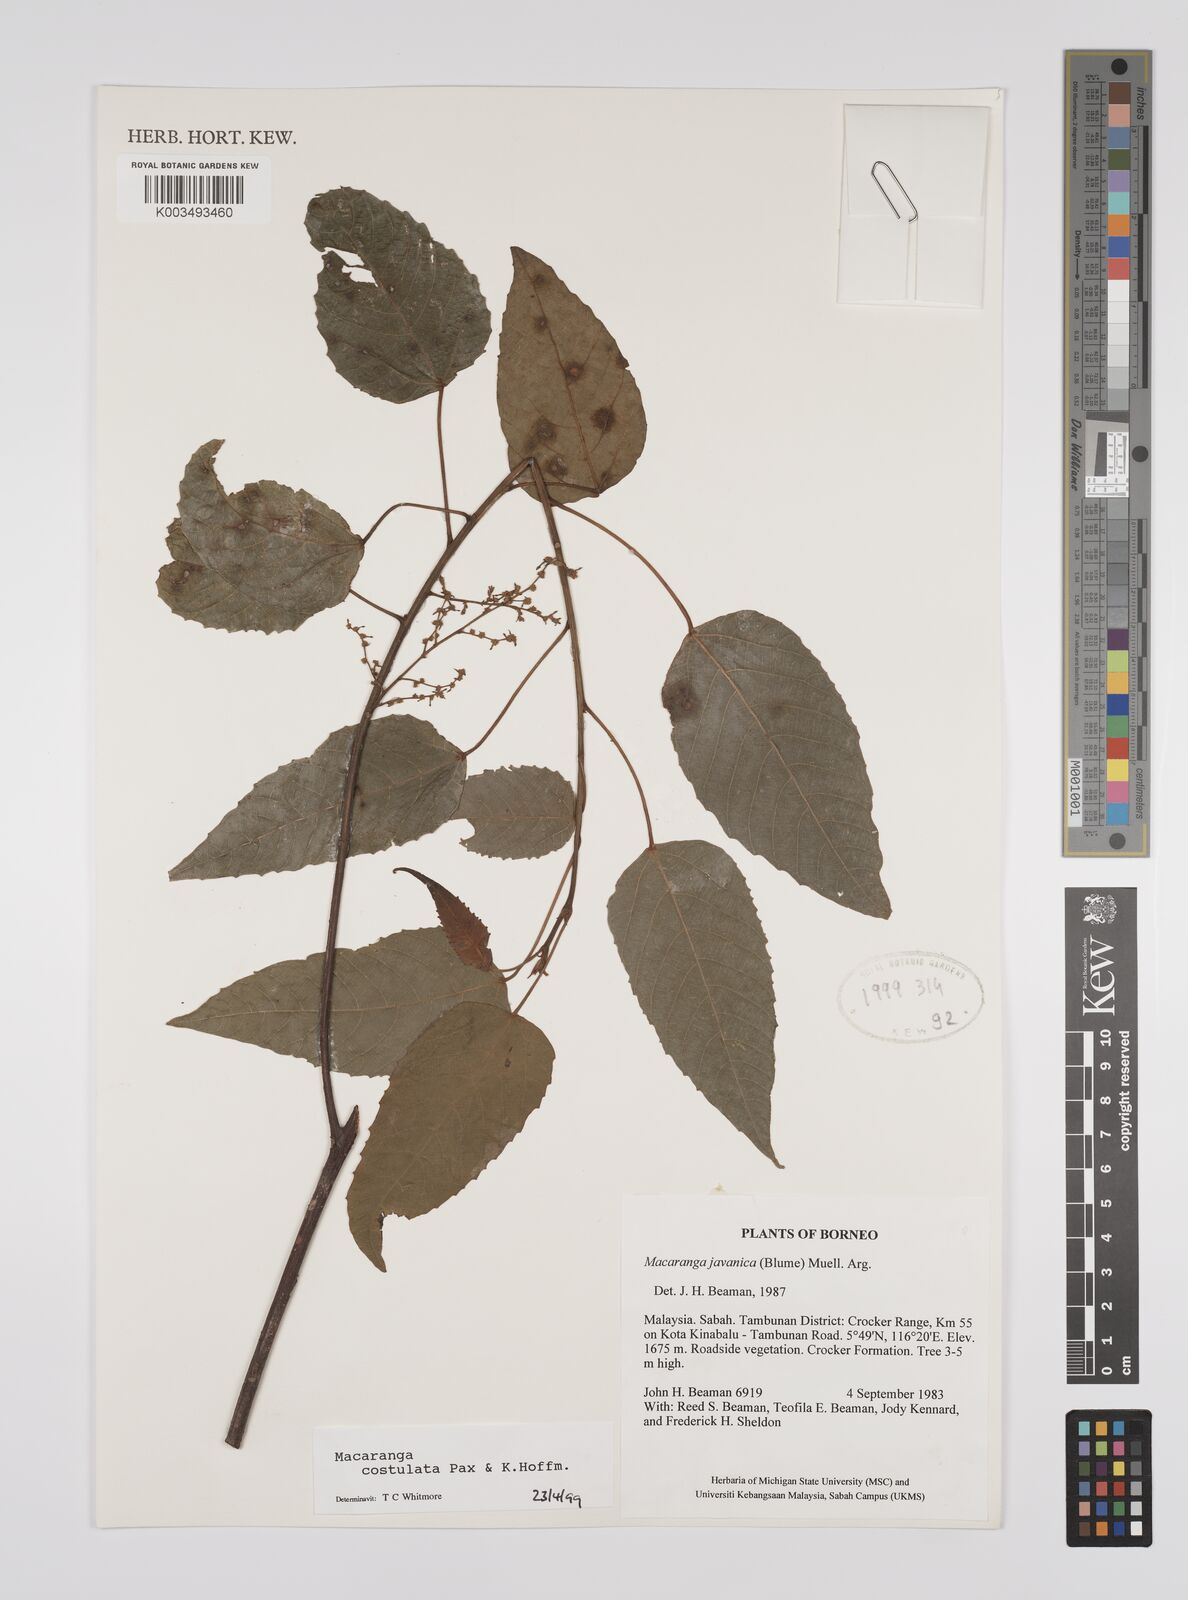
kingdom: Plantae
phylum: Tracheophyta
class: Magnoliopsida
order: Malpighiales
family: Euphorbiaceae
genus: Macaranga
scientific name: Macaranga costulata
